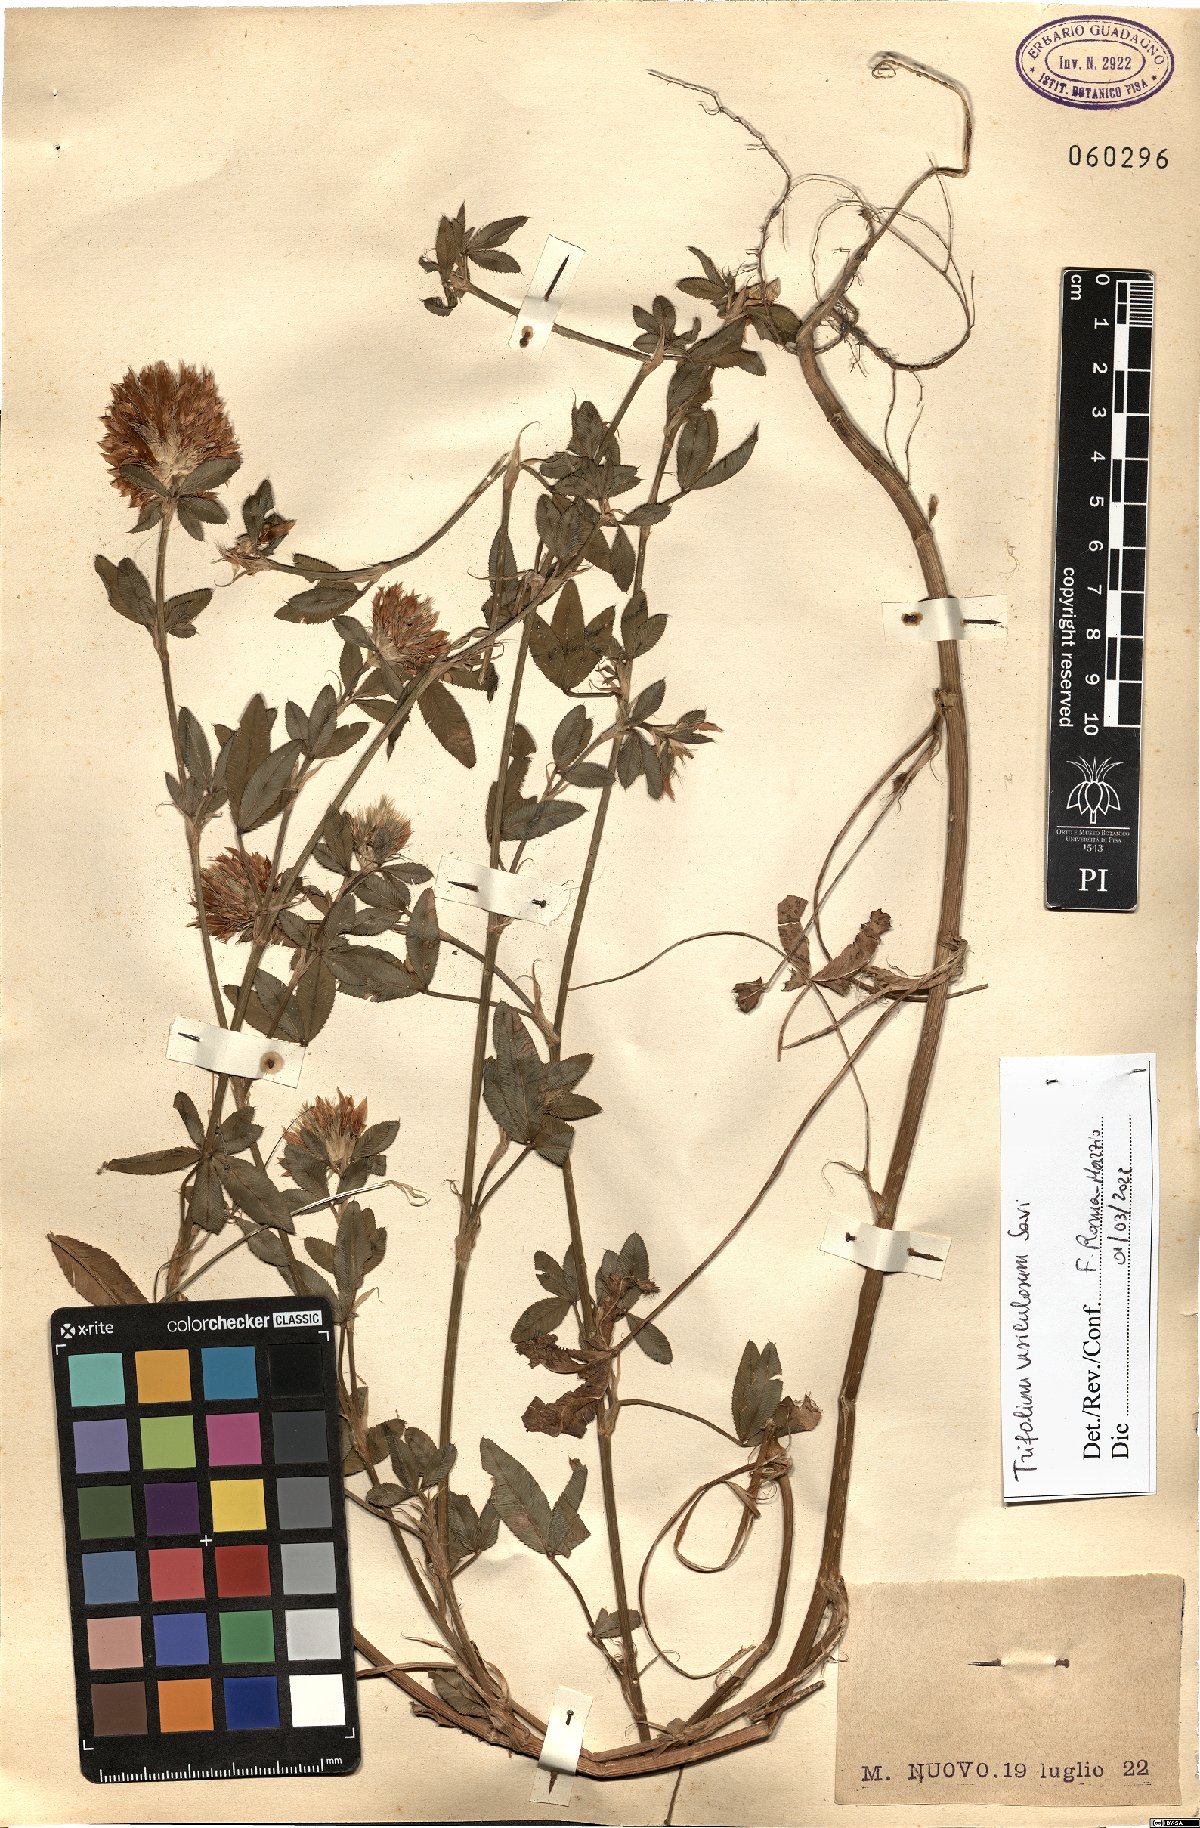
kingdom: Plantae
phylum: Tracheophyta
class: Magnoliopsida
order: Fabales
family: Fabaceae
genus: Trifolium
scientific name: Trifolium vesiculosum
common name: Arrowleaf clover
